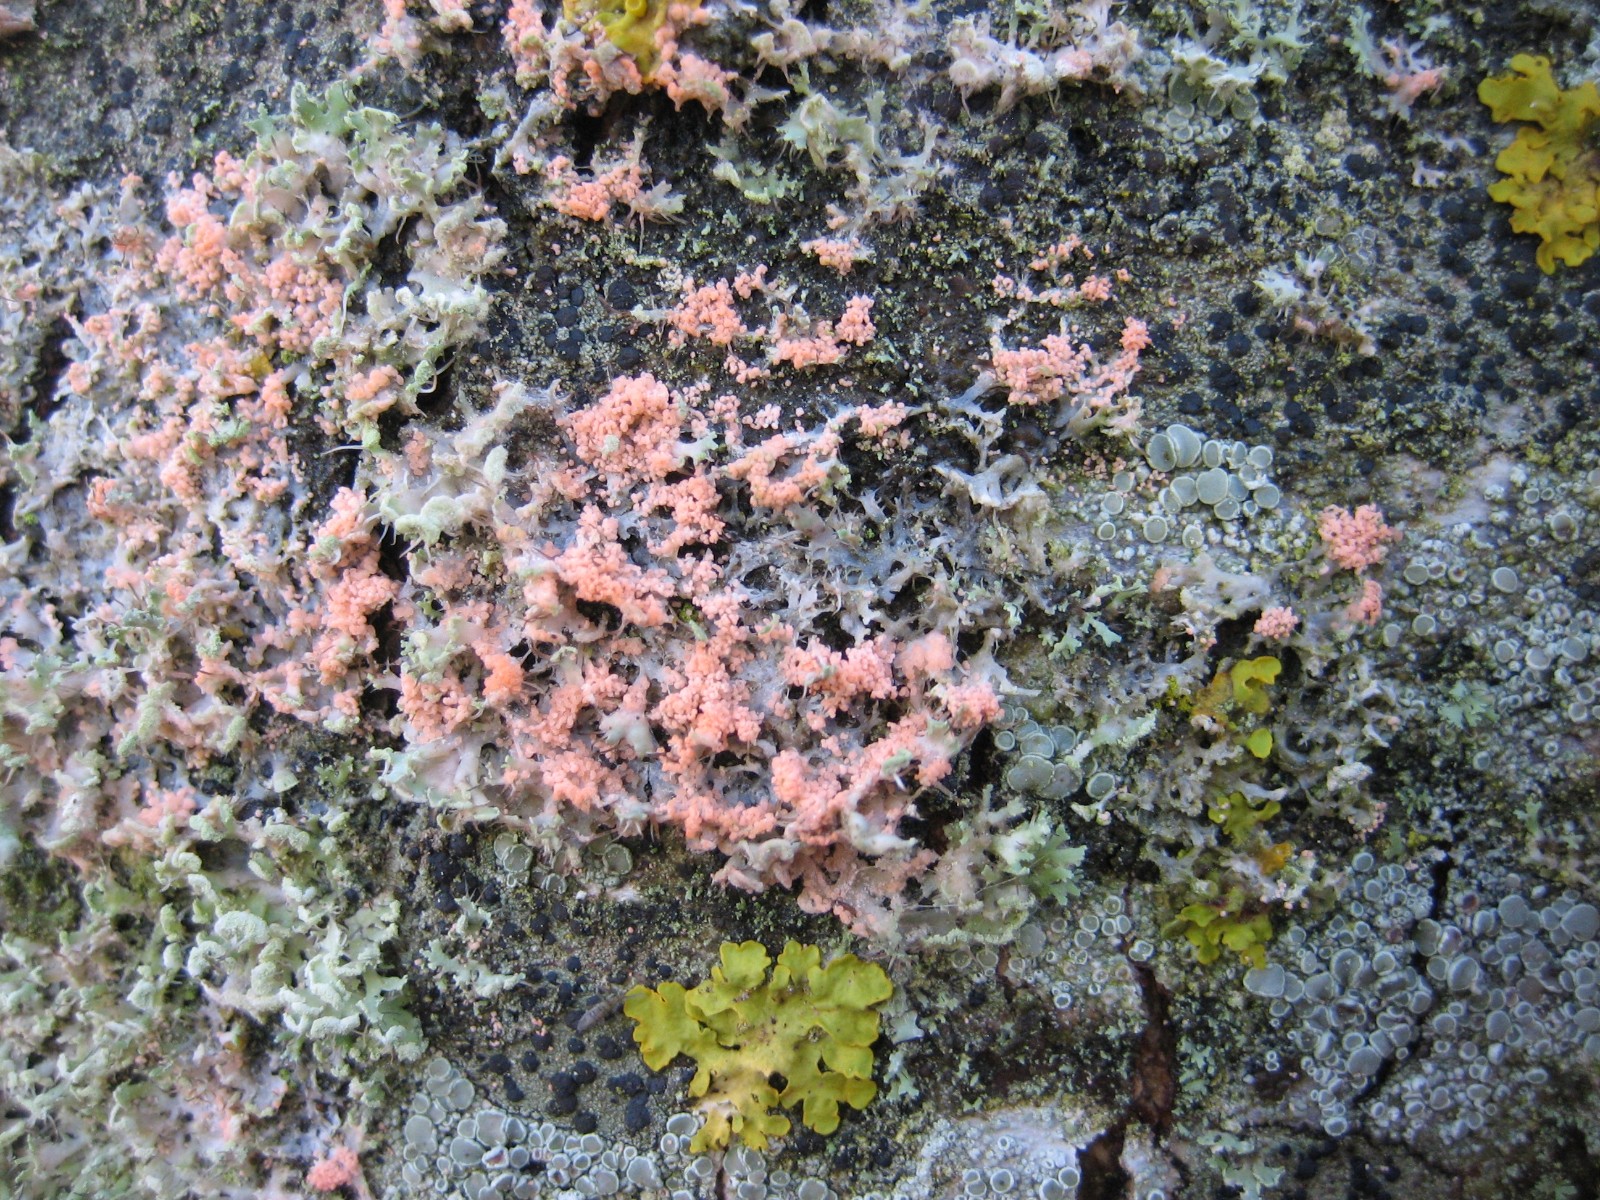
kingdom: Fungi
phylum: Basidiomycota
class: Agaricomycetes
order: Corticiales
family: Corticiaceae
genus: Erythricium
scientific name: Erythricium aurantiacum
